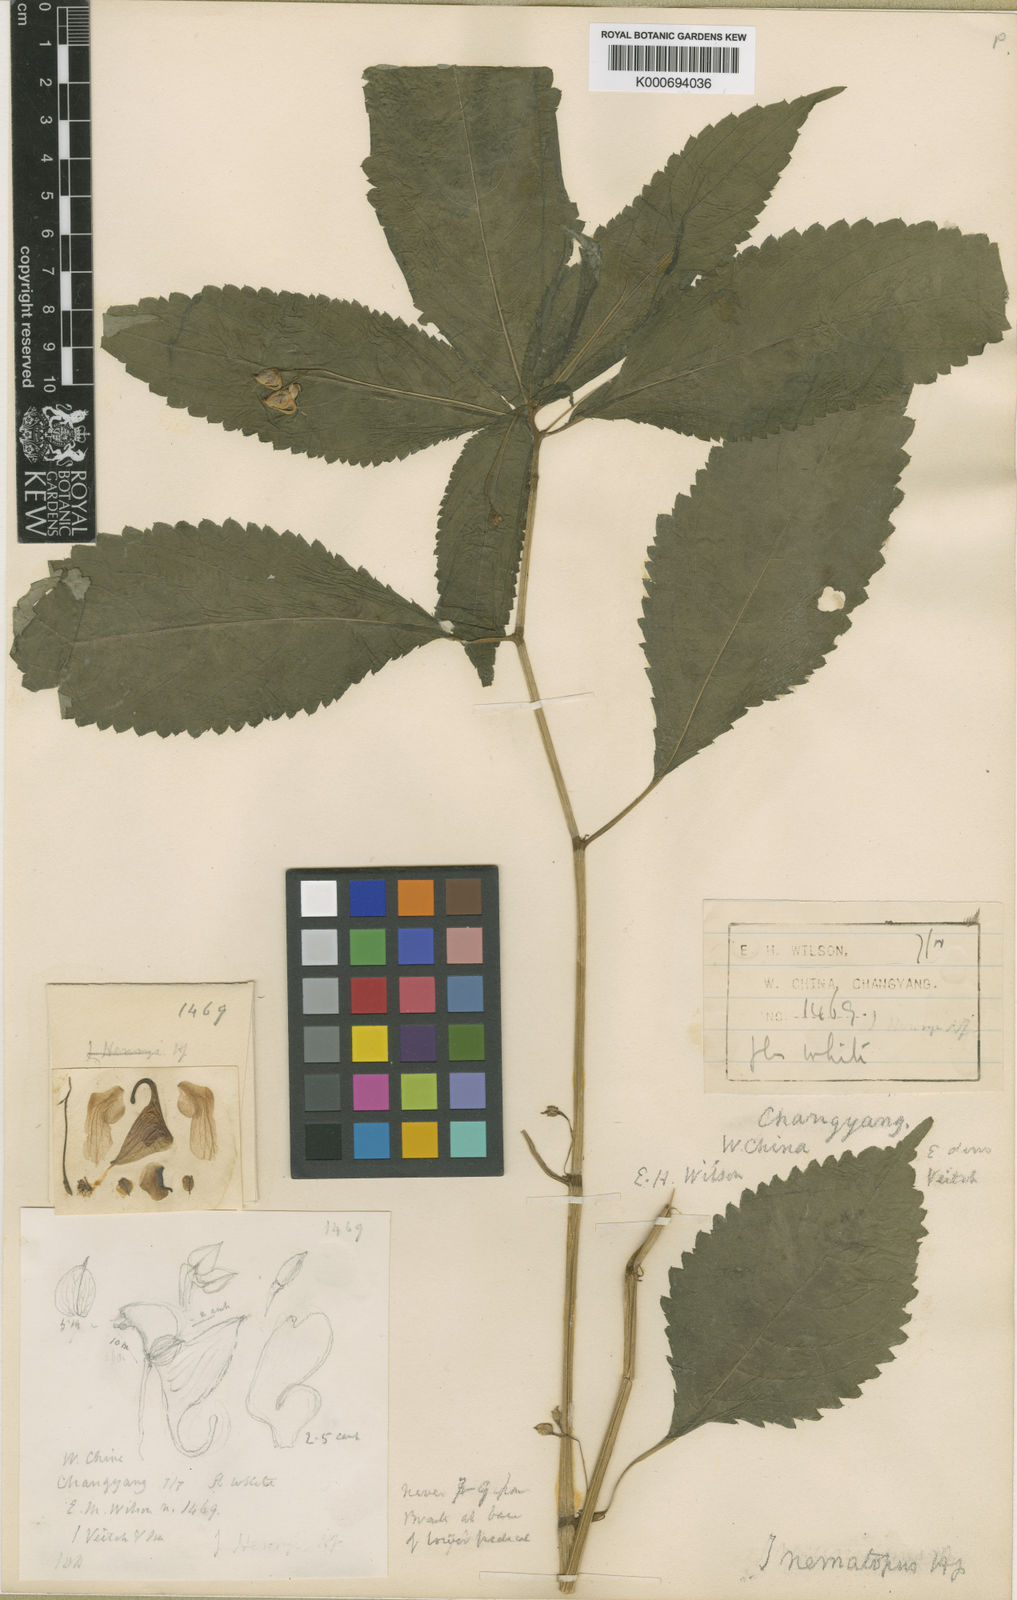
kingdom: Plantae
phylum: Tracheophyta
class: Magnoliopsida
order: Ericales
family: Balsaminaceae
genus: Impatiens
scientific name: Impatiens
